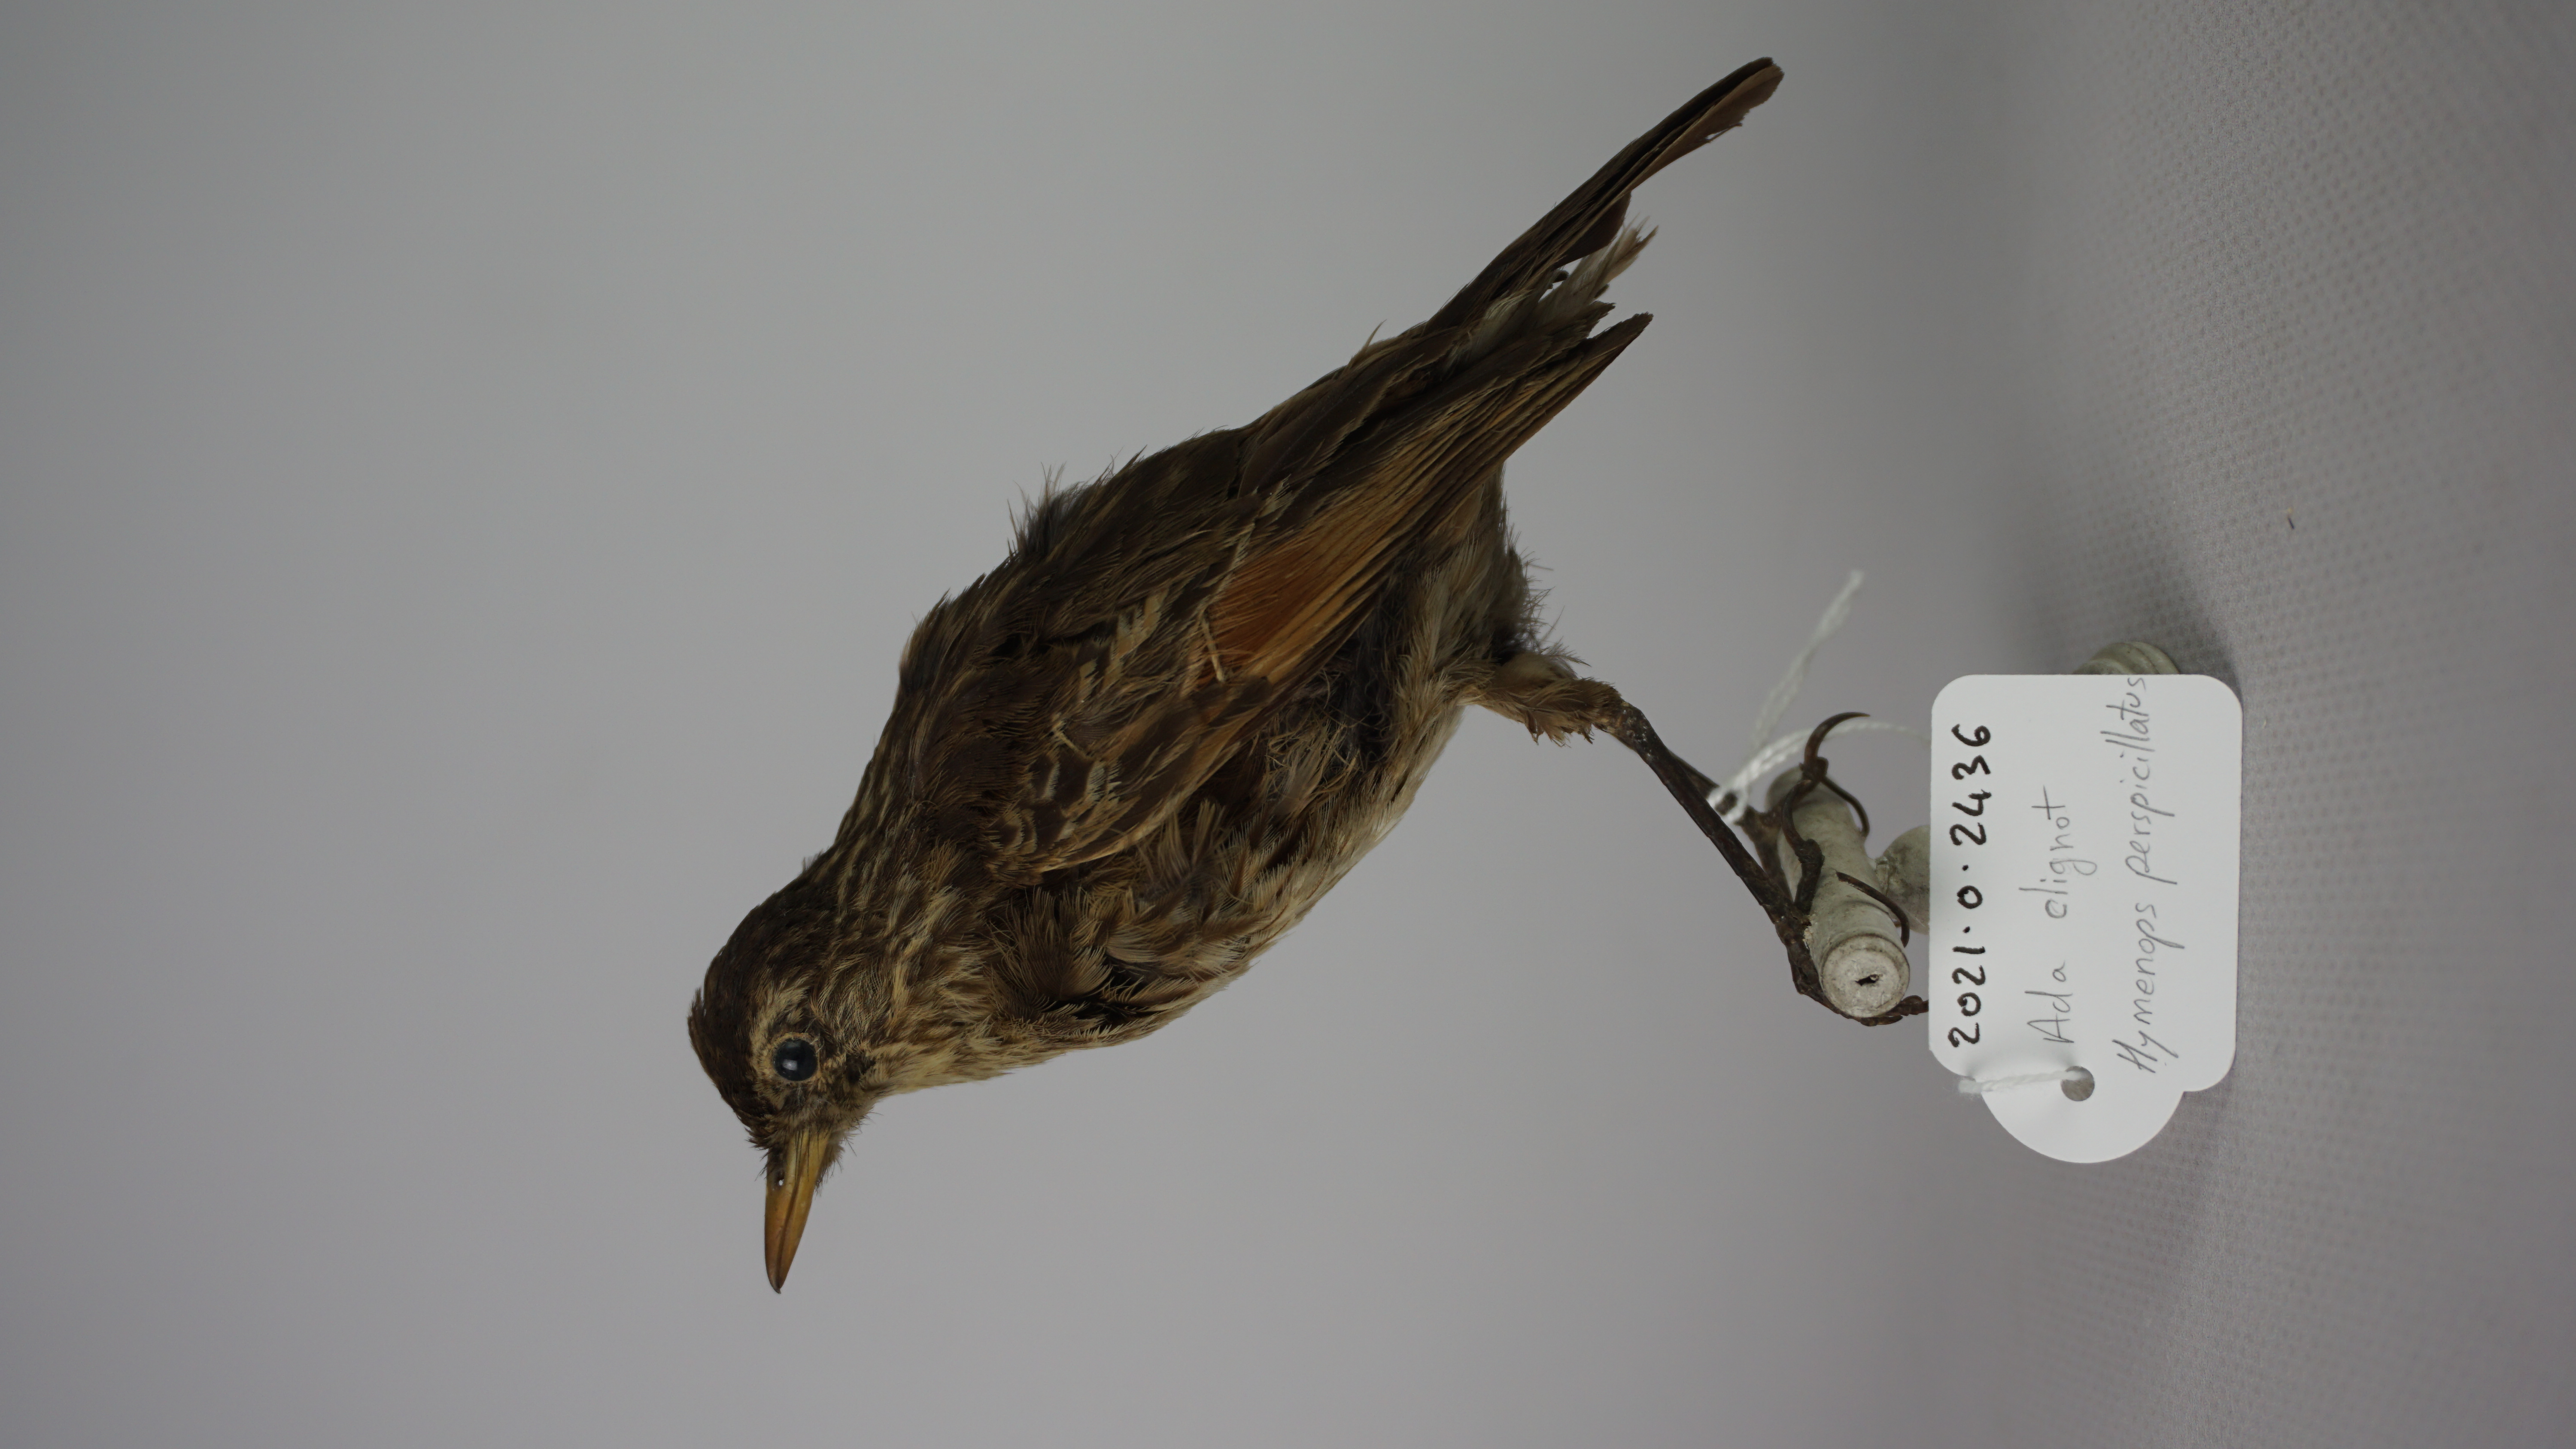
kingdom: Animalia
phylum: Chordata
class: Aves
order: Passeriformes
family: Tyrannidae
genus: Hymenops
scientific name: Hymenops perspicillatus
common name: Spectacled tyrant
